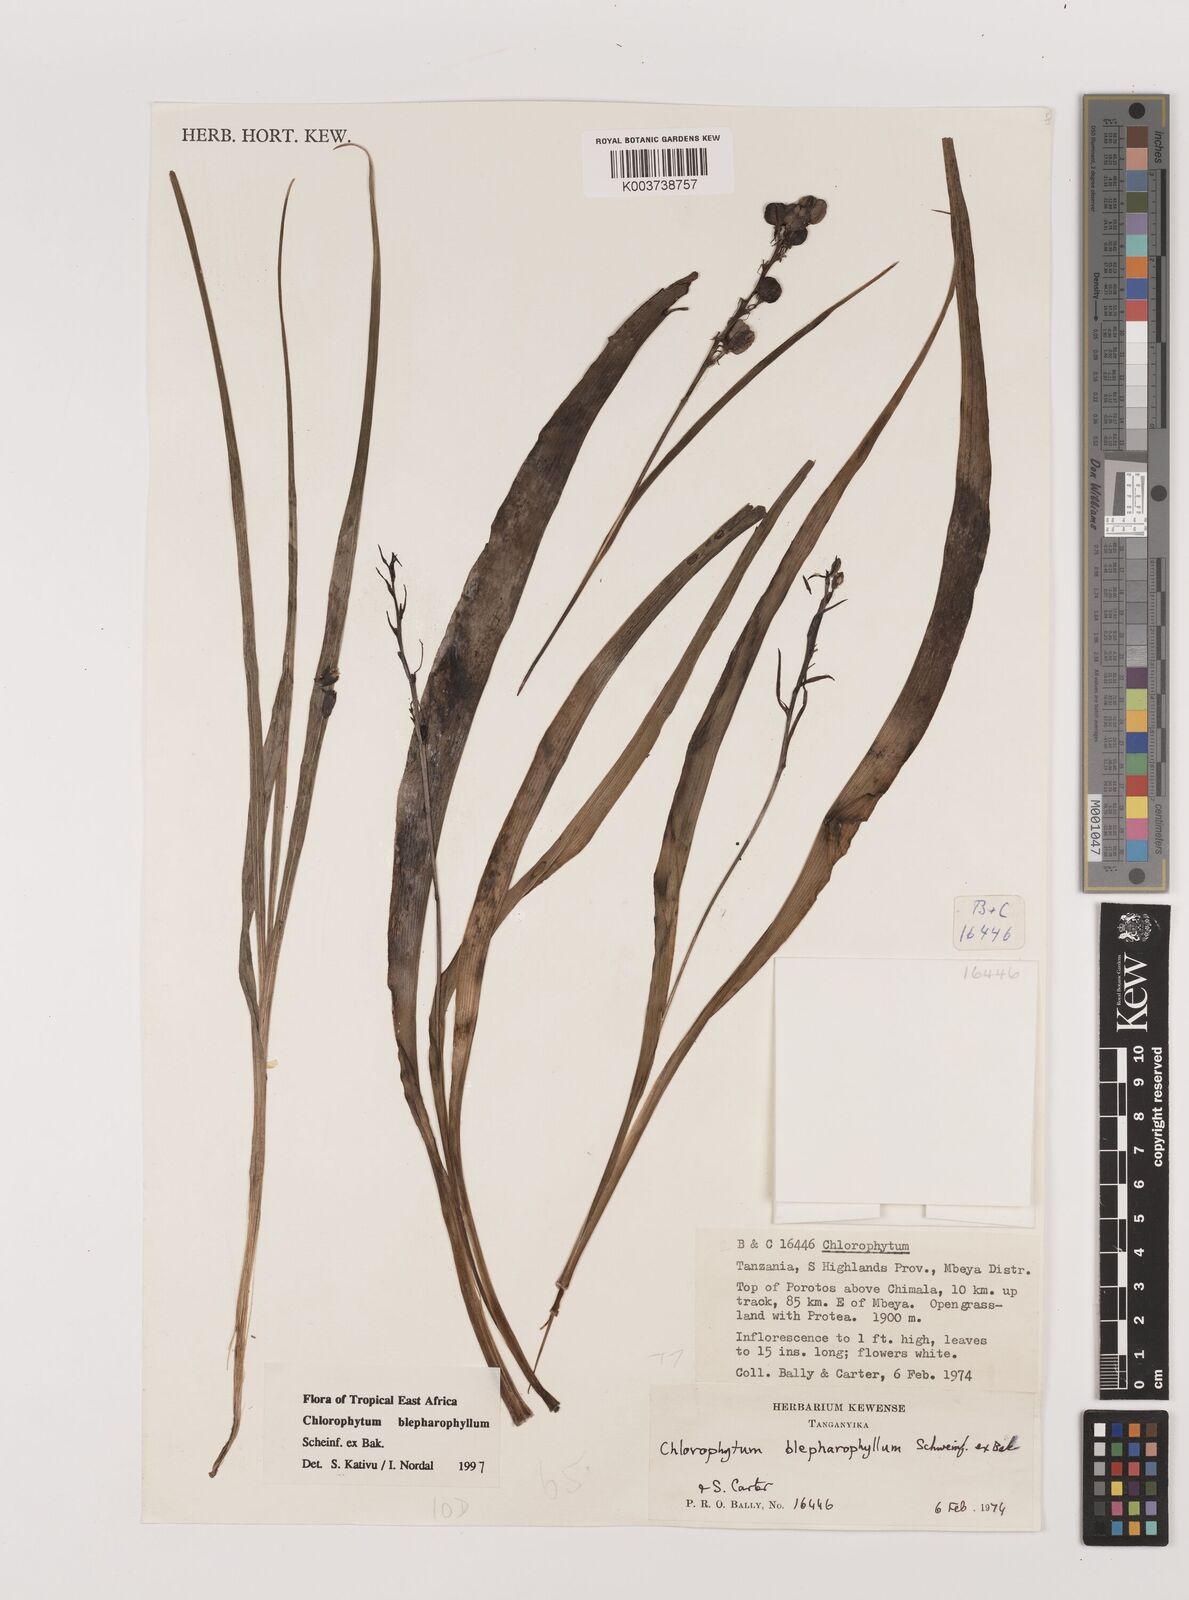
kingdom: Plantae
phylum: Tracheophyta
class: Liliopsida
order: Asparagales
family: Asparagaceae
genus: Chlorophytum
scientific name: Chlorophytum blepharophyllum
